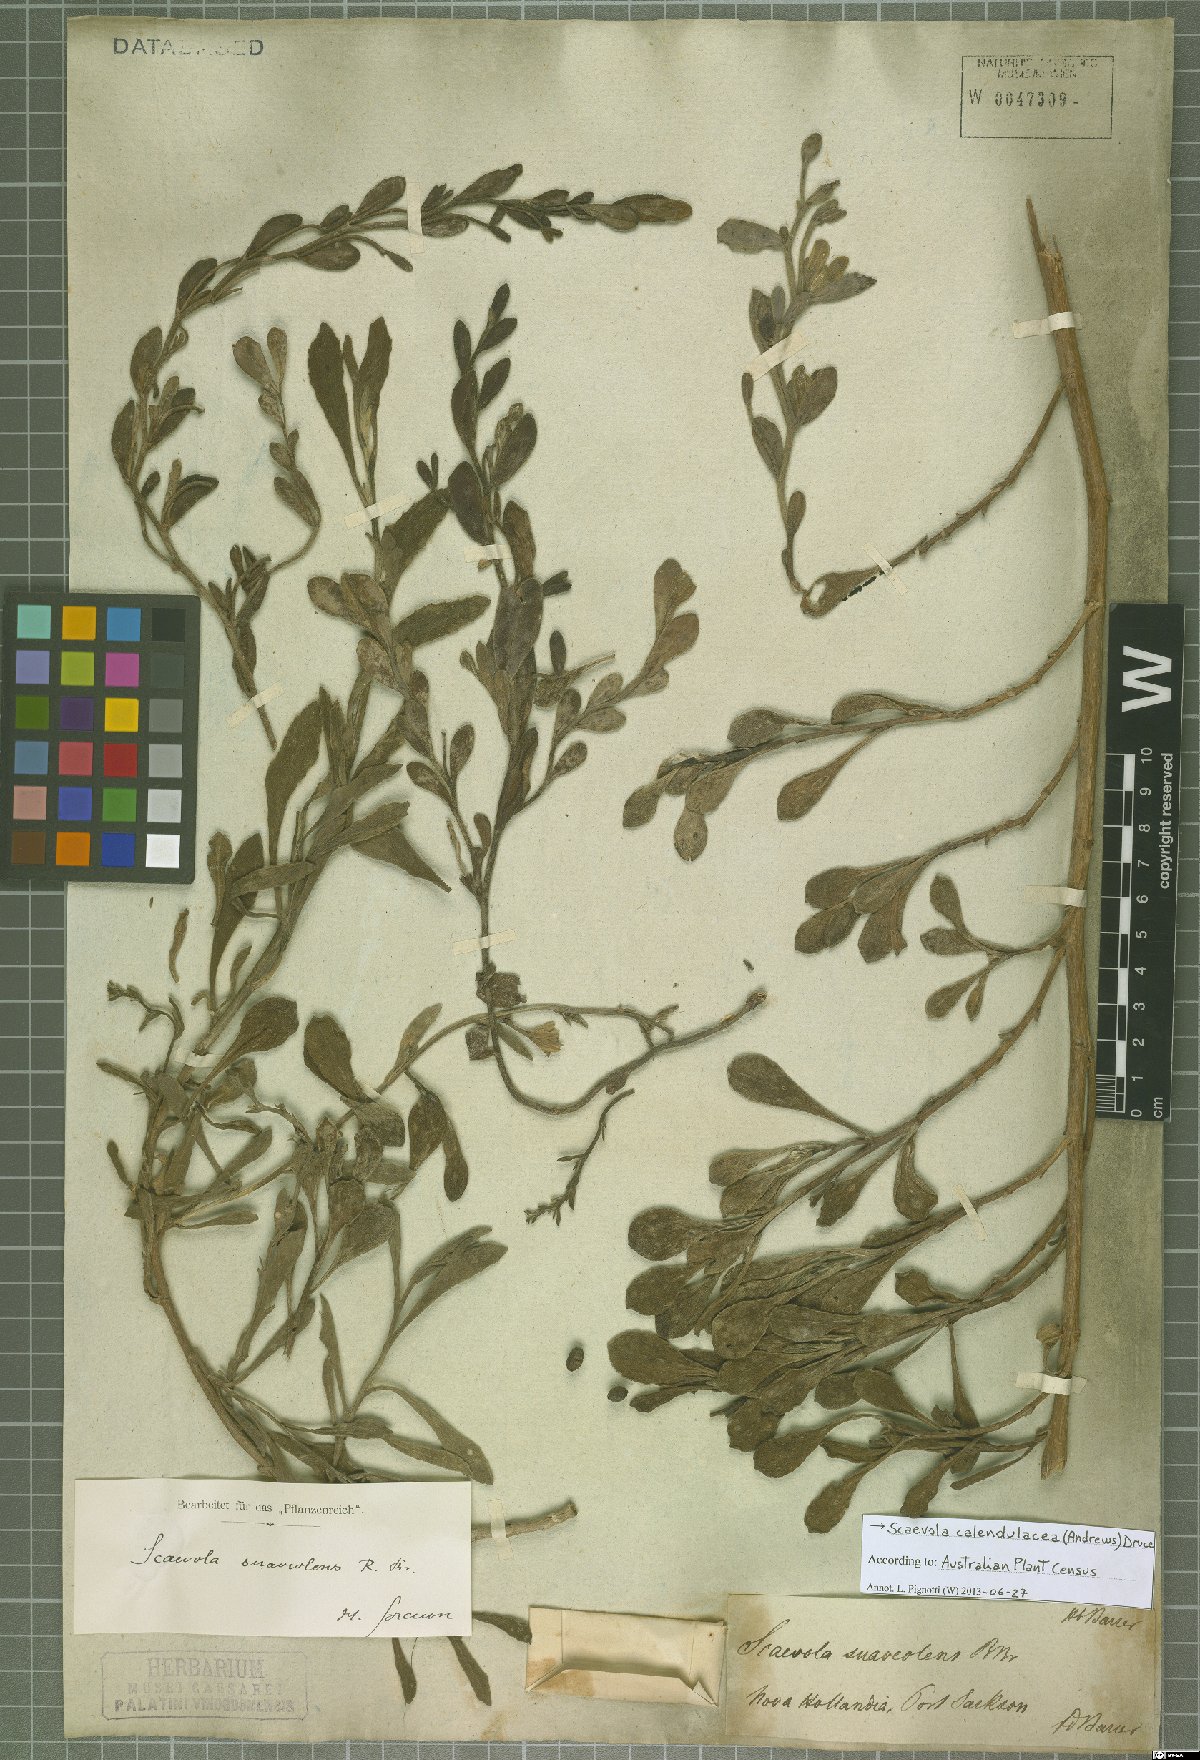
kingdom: Plantae
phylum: Tracheophyta
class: Magnoliopsida
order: Asterales
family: Goodeniaceae
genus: Scaevola
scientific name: Scaevola calendulacea
